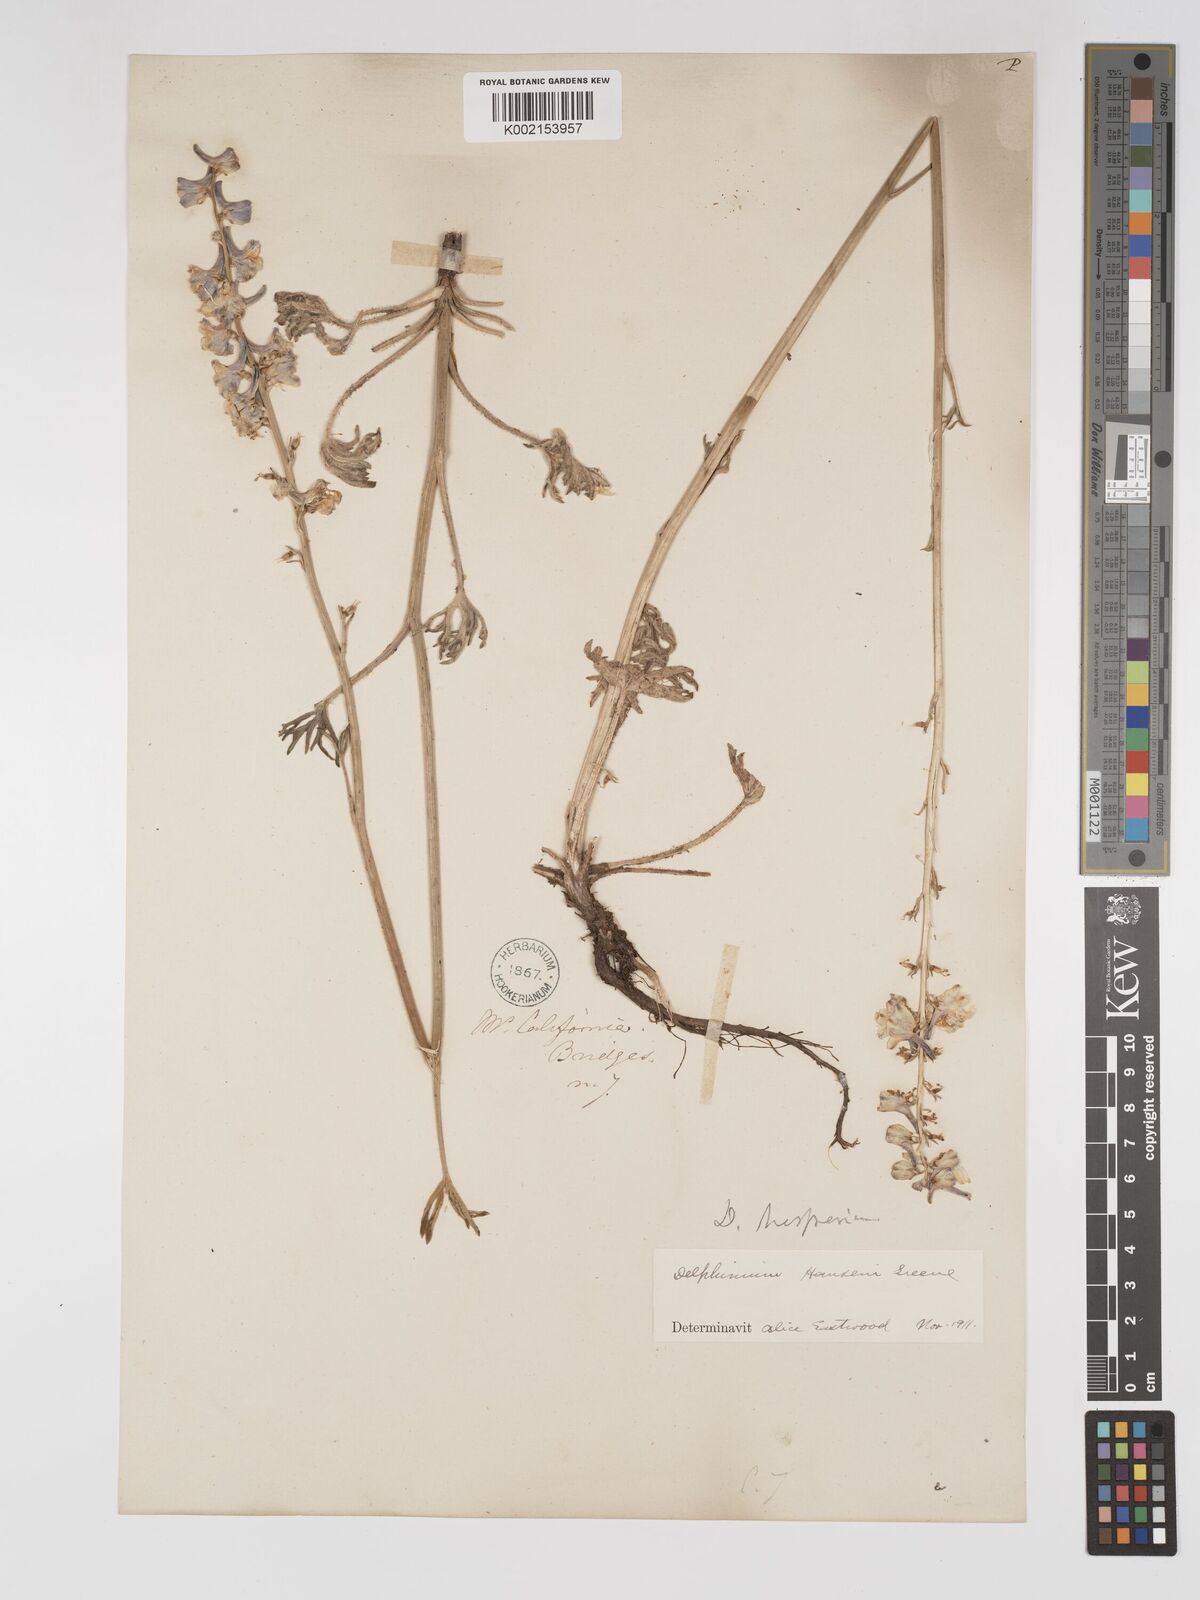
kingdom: Plantae
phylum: Tracheophyta
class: Magnoliopsida
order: Ranunculales
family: Ranunculaceae
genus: Delphinium
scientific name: Delphinium hansenii
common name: Hansen's larkspur
